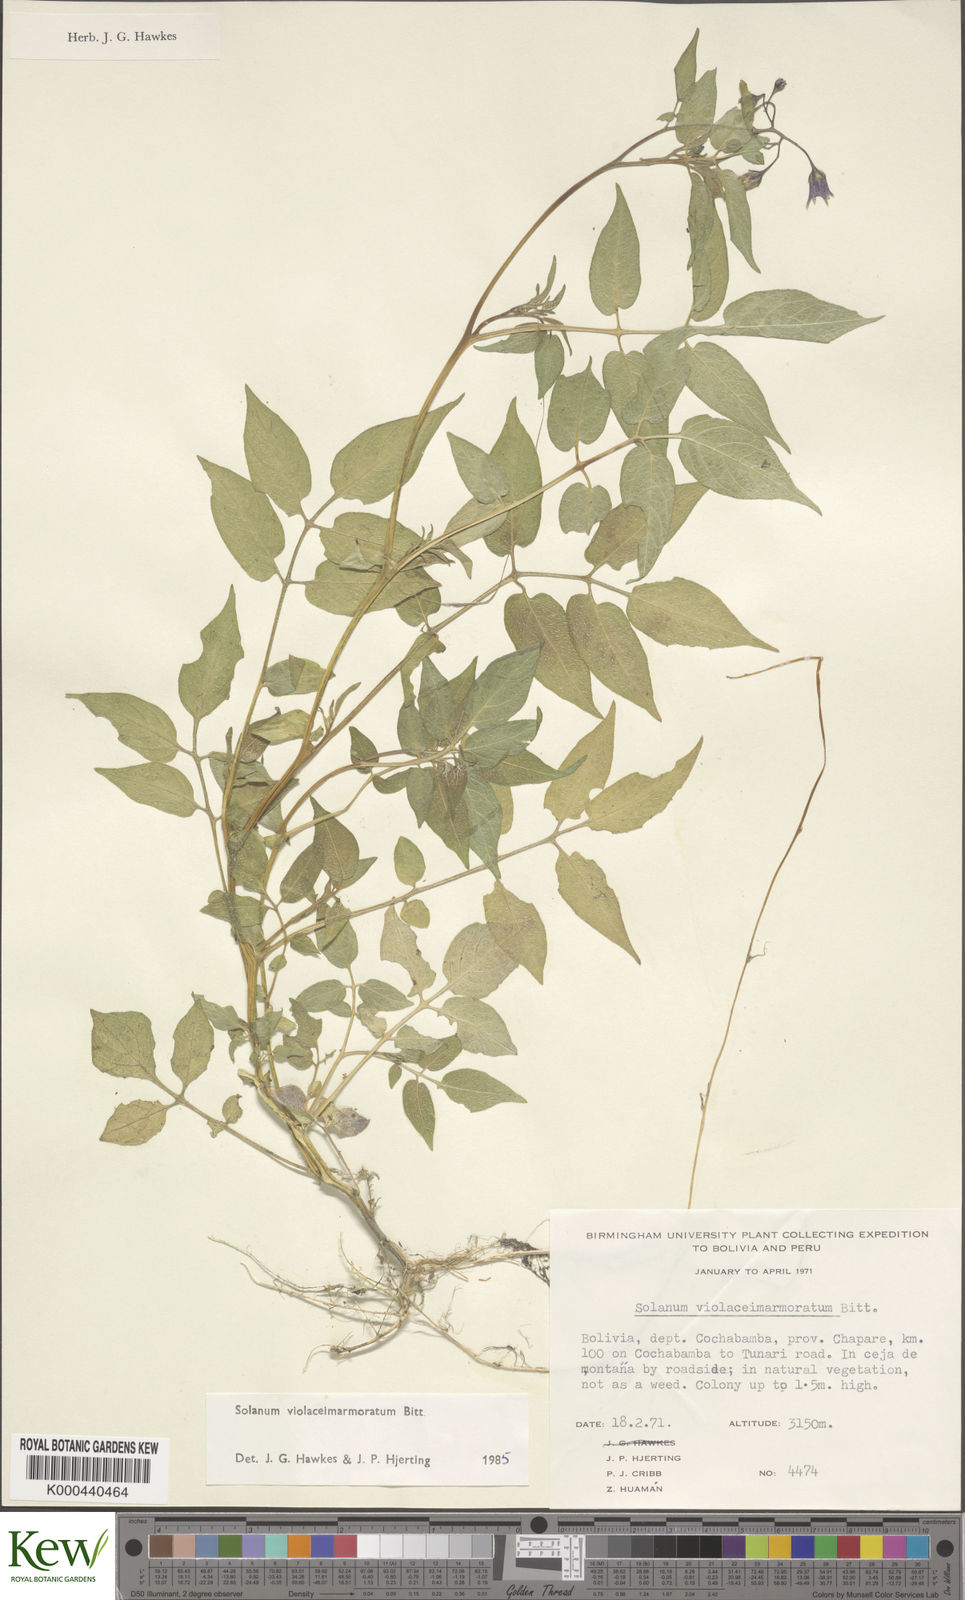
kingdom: Plantae
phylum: Tracheophyta
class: Magnoliopsida
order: Solanales
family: Solanaceae
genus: Solanum
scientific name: Solanum violaceimarmoratum
